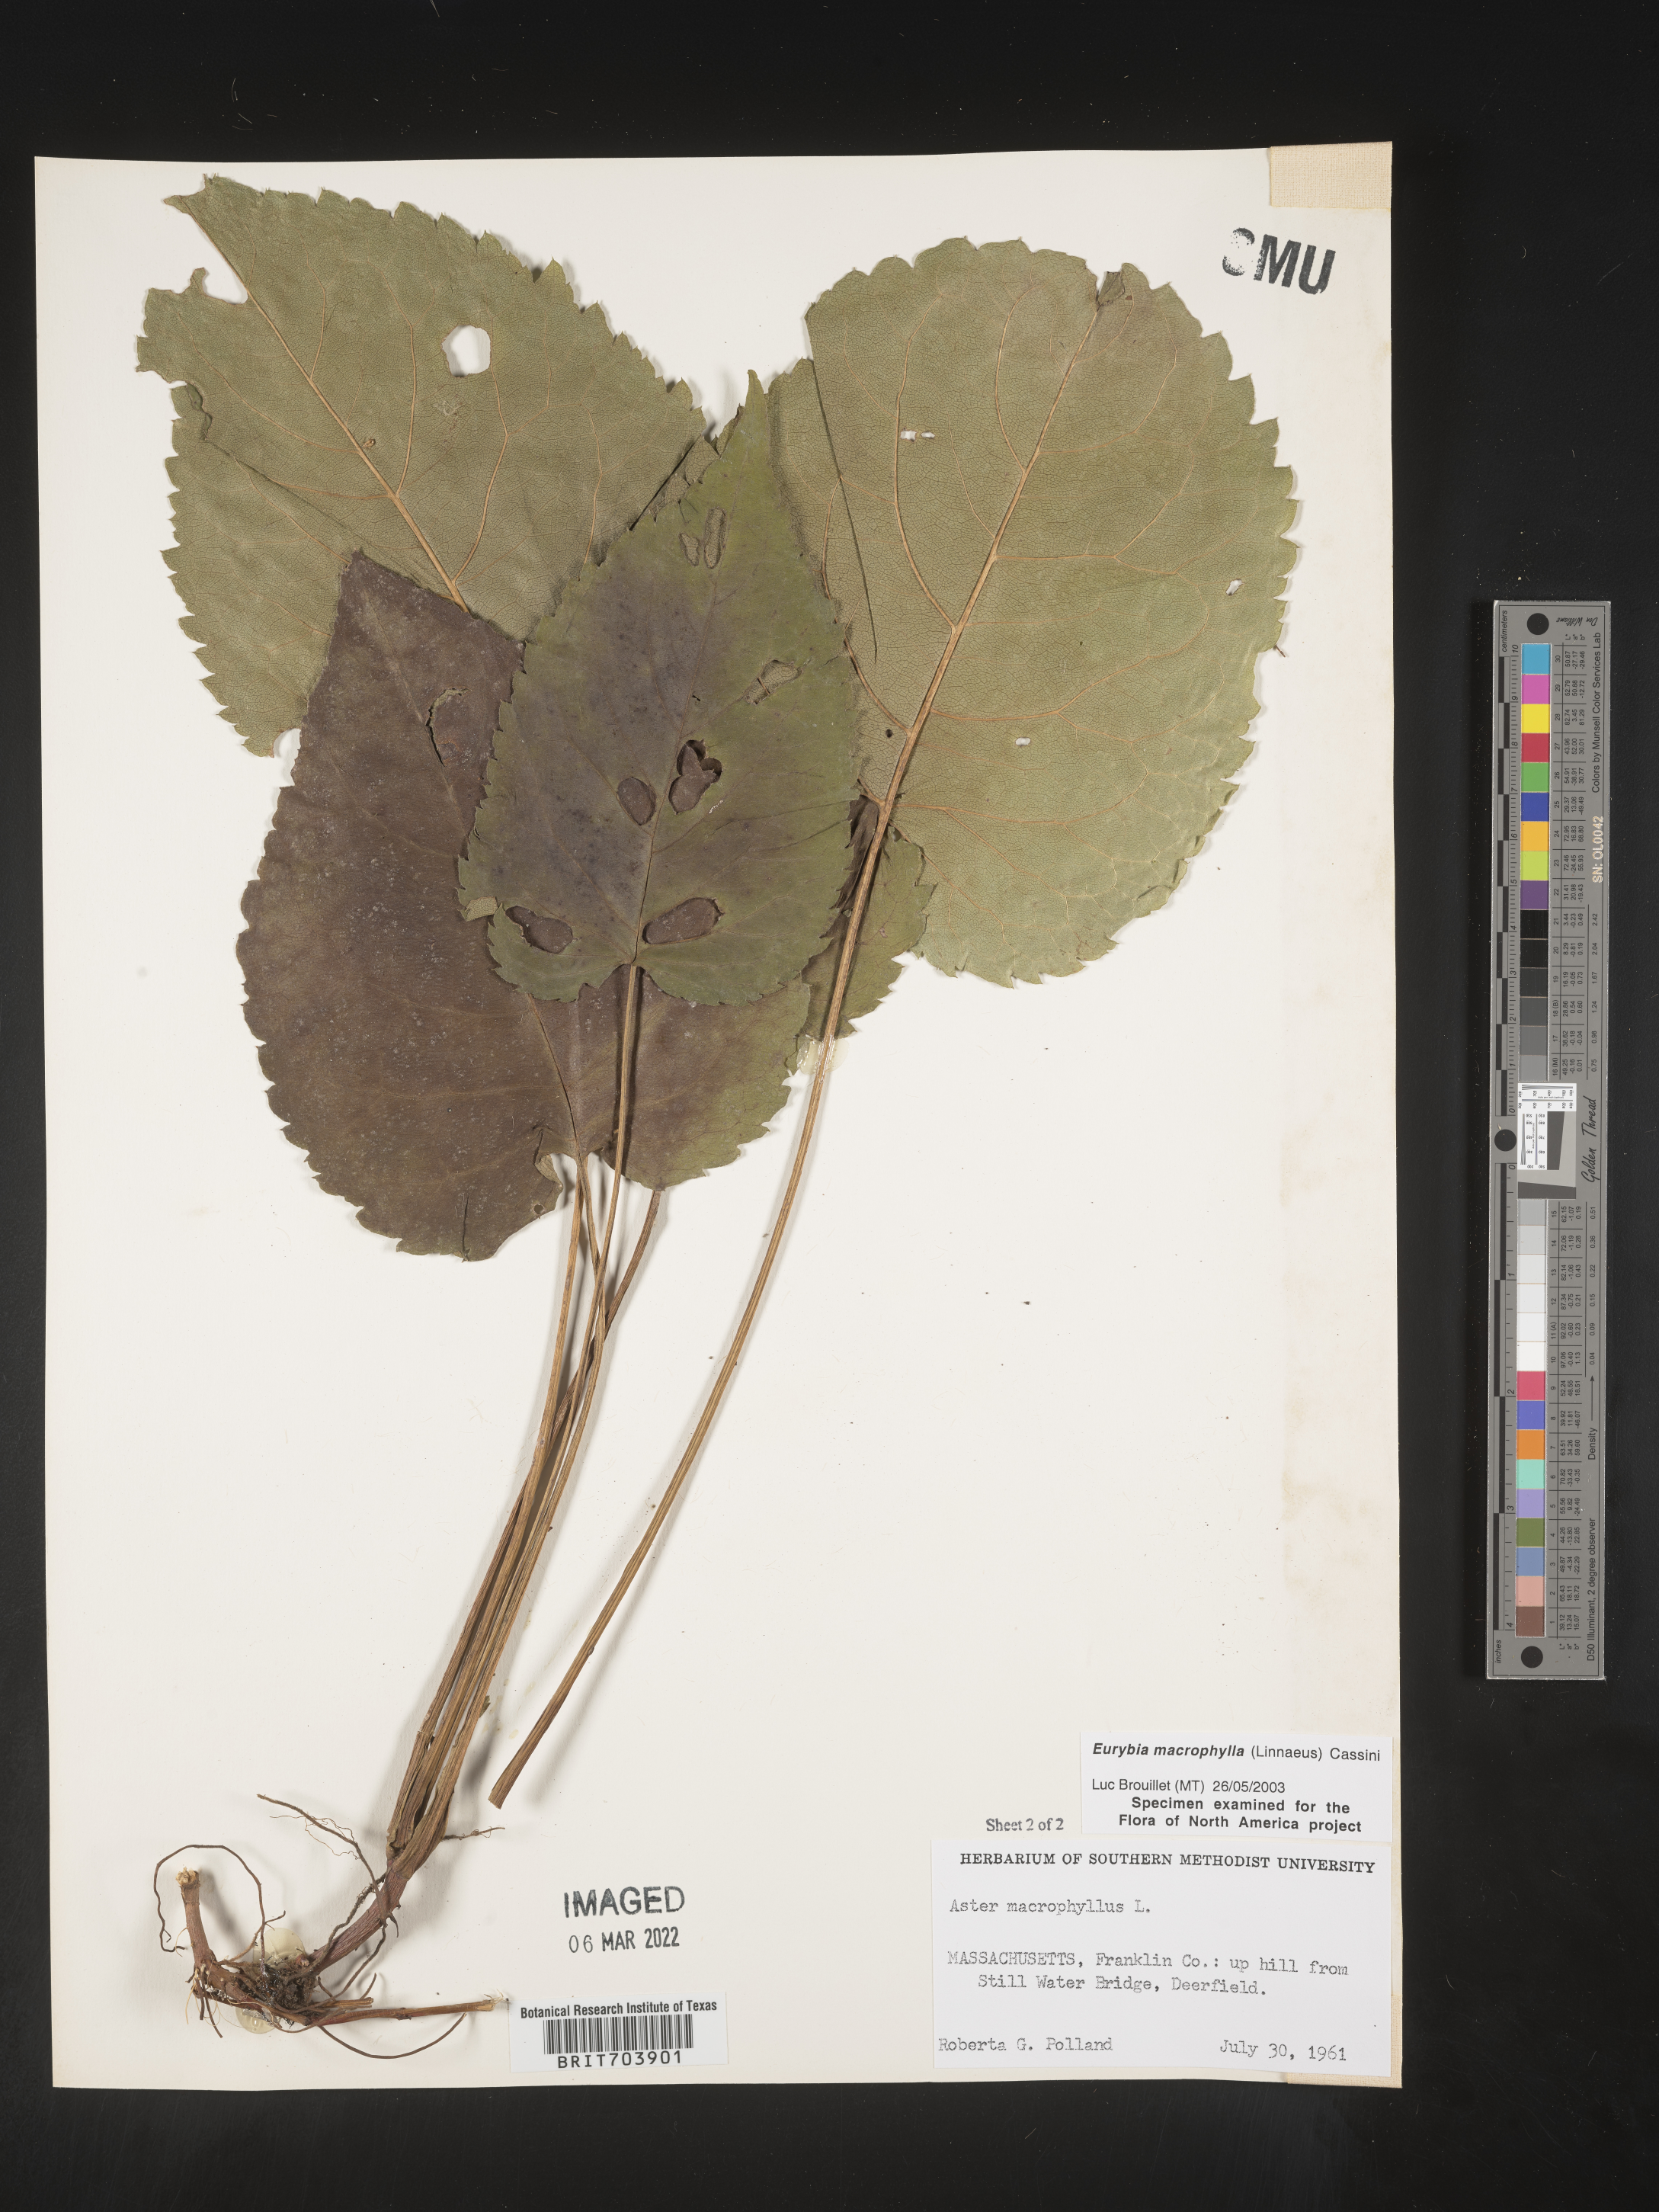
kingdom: Plantae
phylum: Tracheophyta
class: Magnoliopsida
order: Asterales
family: Asteraceae
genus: Eurybia
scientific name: Eurybia macrophylla
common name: Big-leaved aster
